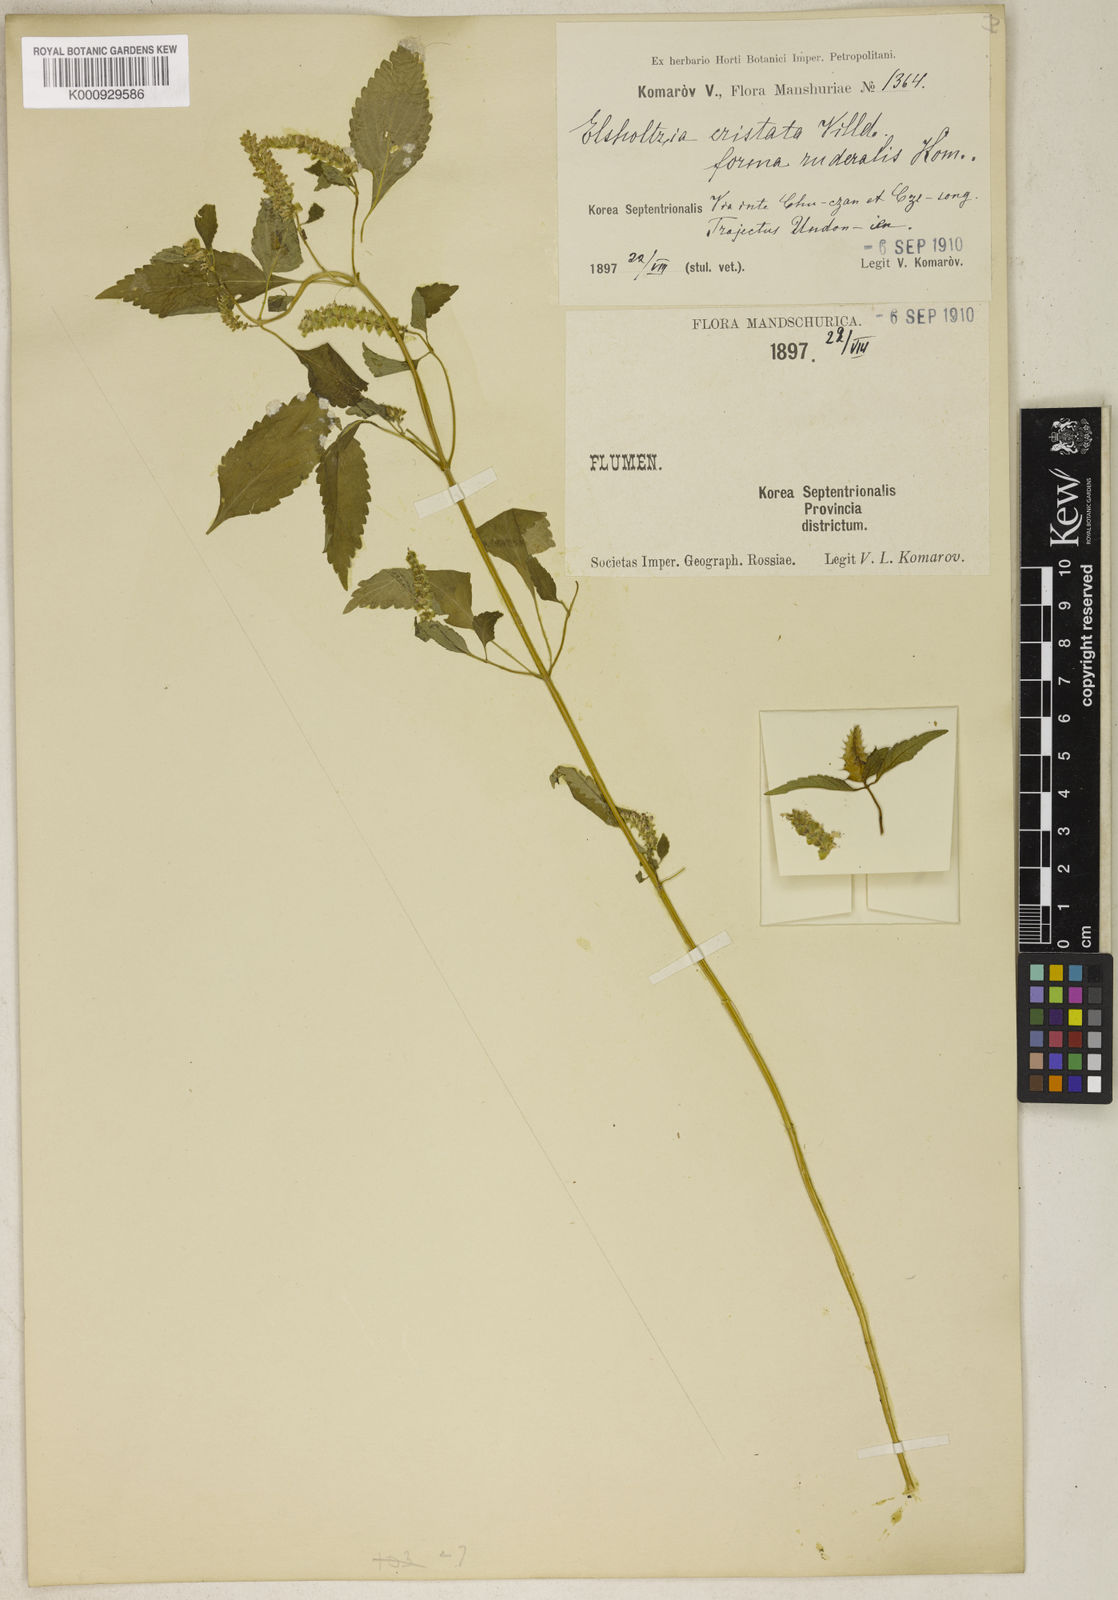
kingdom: Plantae
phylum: Tracheophyta
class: Magnoliopsida
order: Lamiales
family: Lamiaceae
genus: Elsholtzia
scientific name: Elsholtzia ciliata
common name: Ciliate elsholtzia
